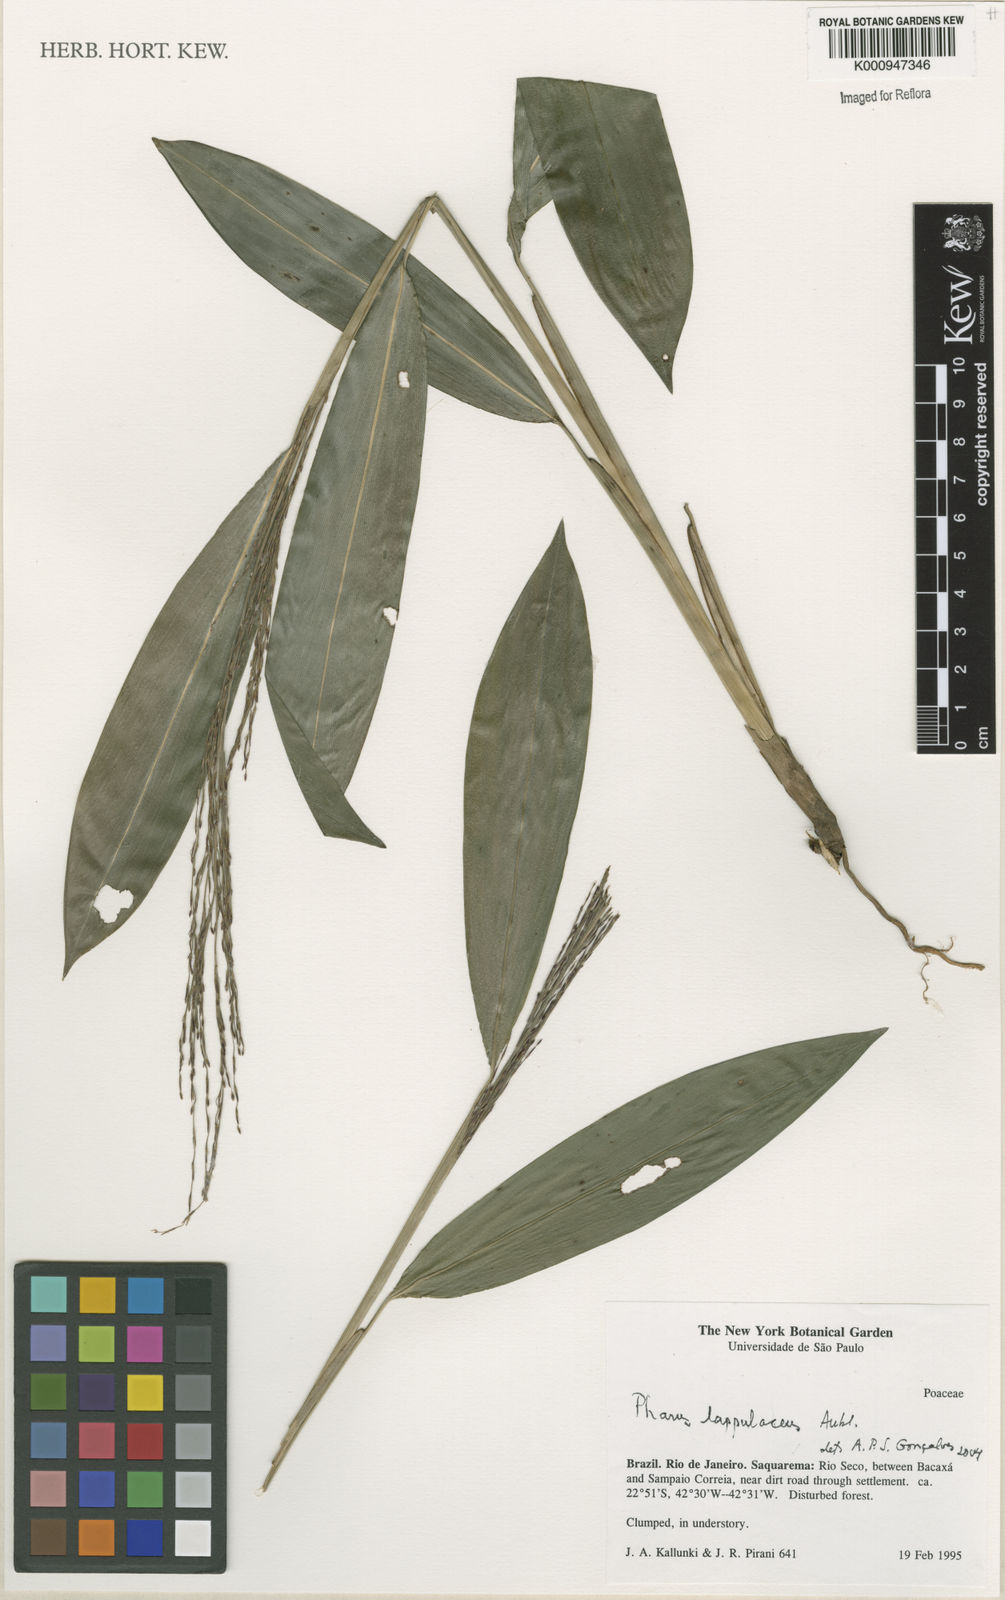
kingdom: Plantae
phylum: Tracheophyta
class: Liliopsida
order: Poales
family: Poaceae
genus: Pharus
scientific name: Pharus lappulaceus
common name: Creeping leafstalk grass
